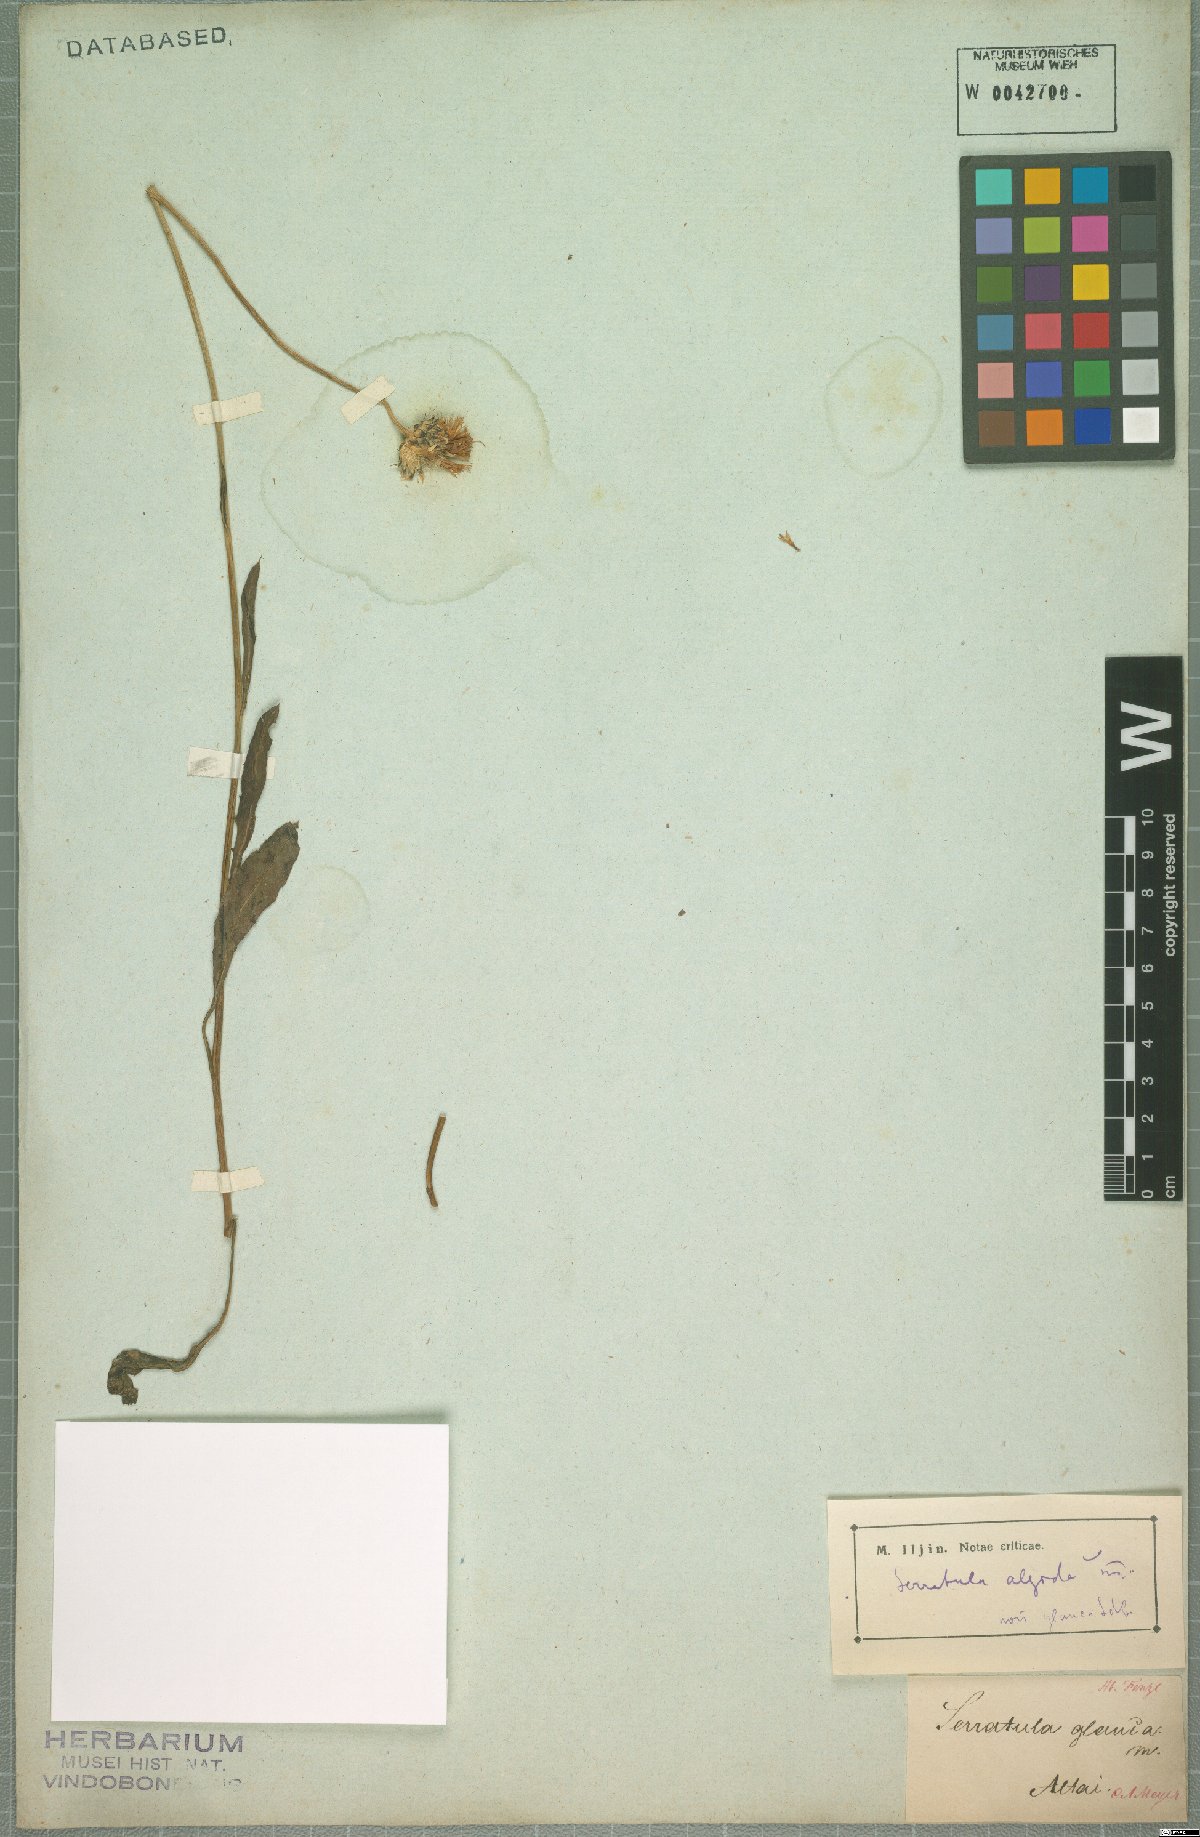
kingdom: Plantae
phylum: Tracheophyta
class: Magnoliopsida
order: Asterales
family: Asteraceae
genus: Klasea
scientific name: Klasea marginata
